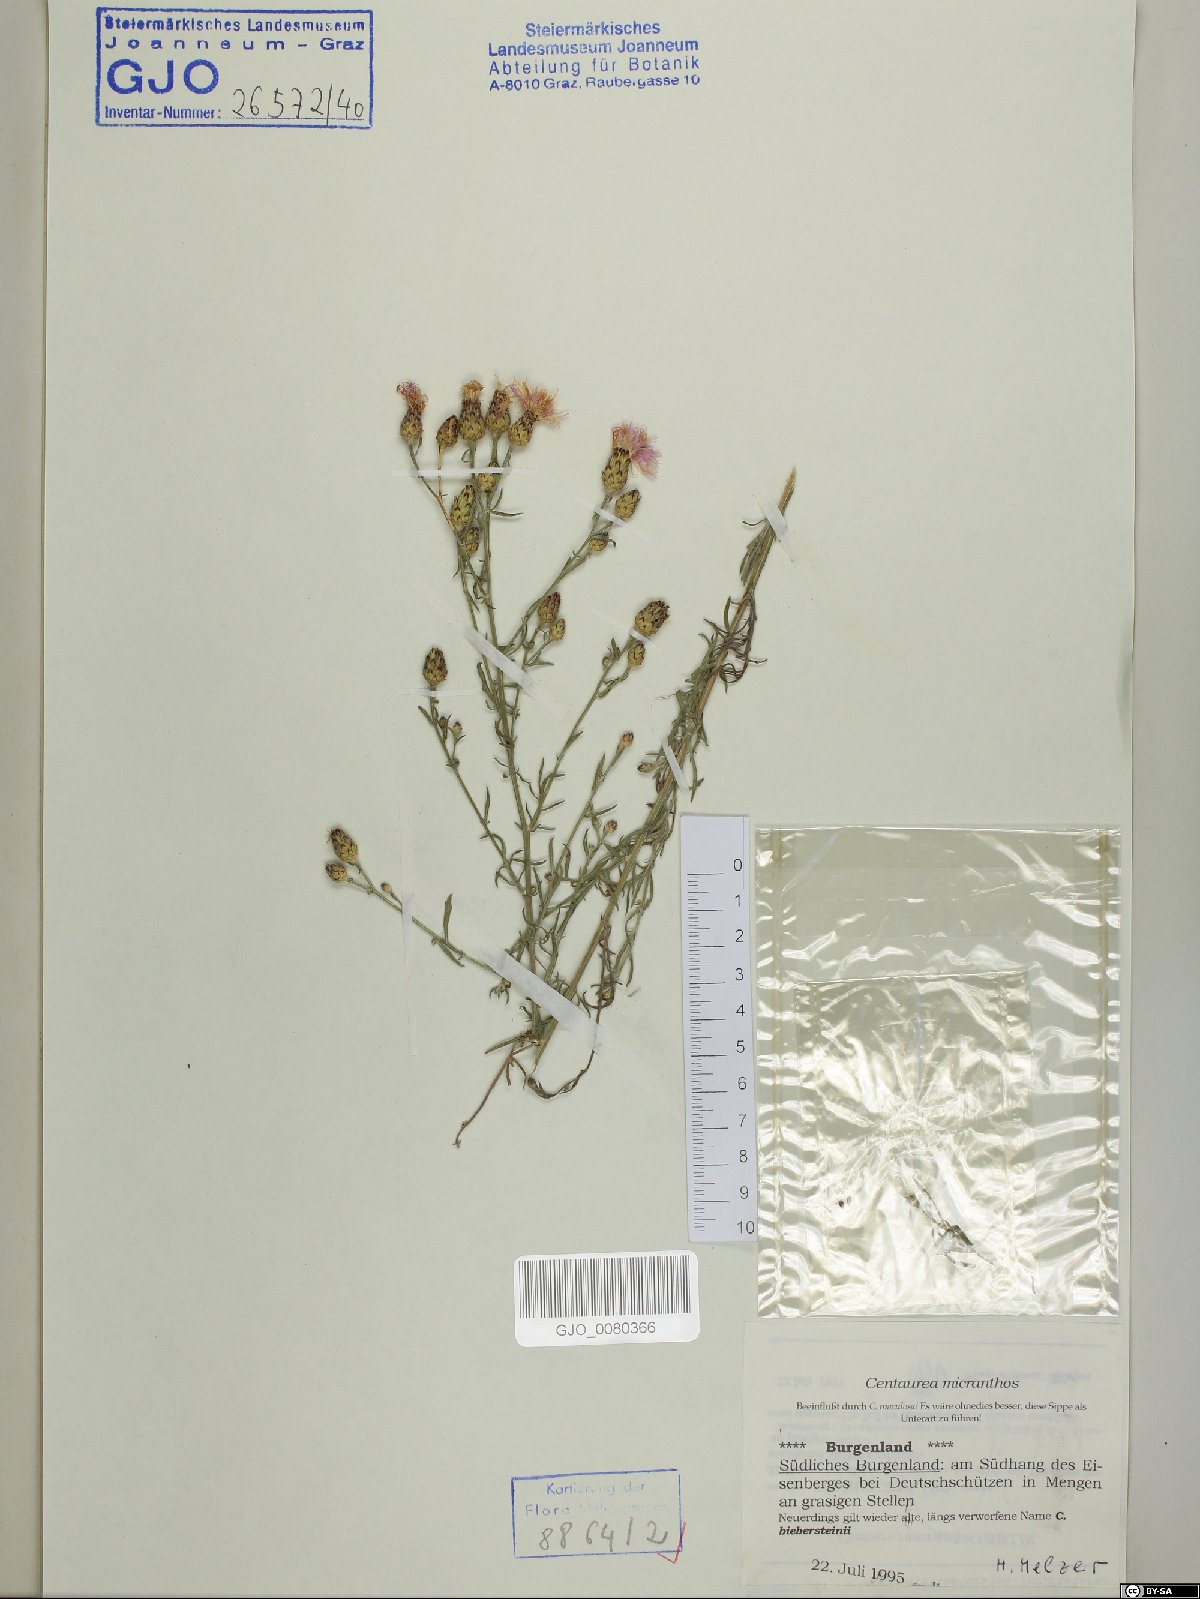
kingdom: Plantae
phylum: Tracheophyta
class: Magnoliopsida
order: Asterales
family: Asteraceae
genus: Centaurea
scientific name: Centaurea micranthos
